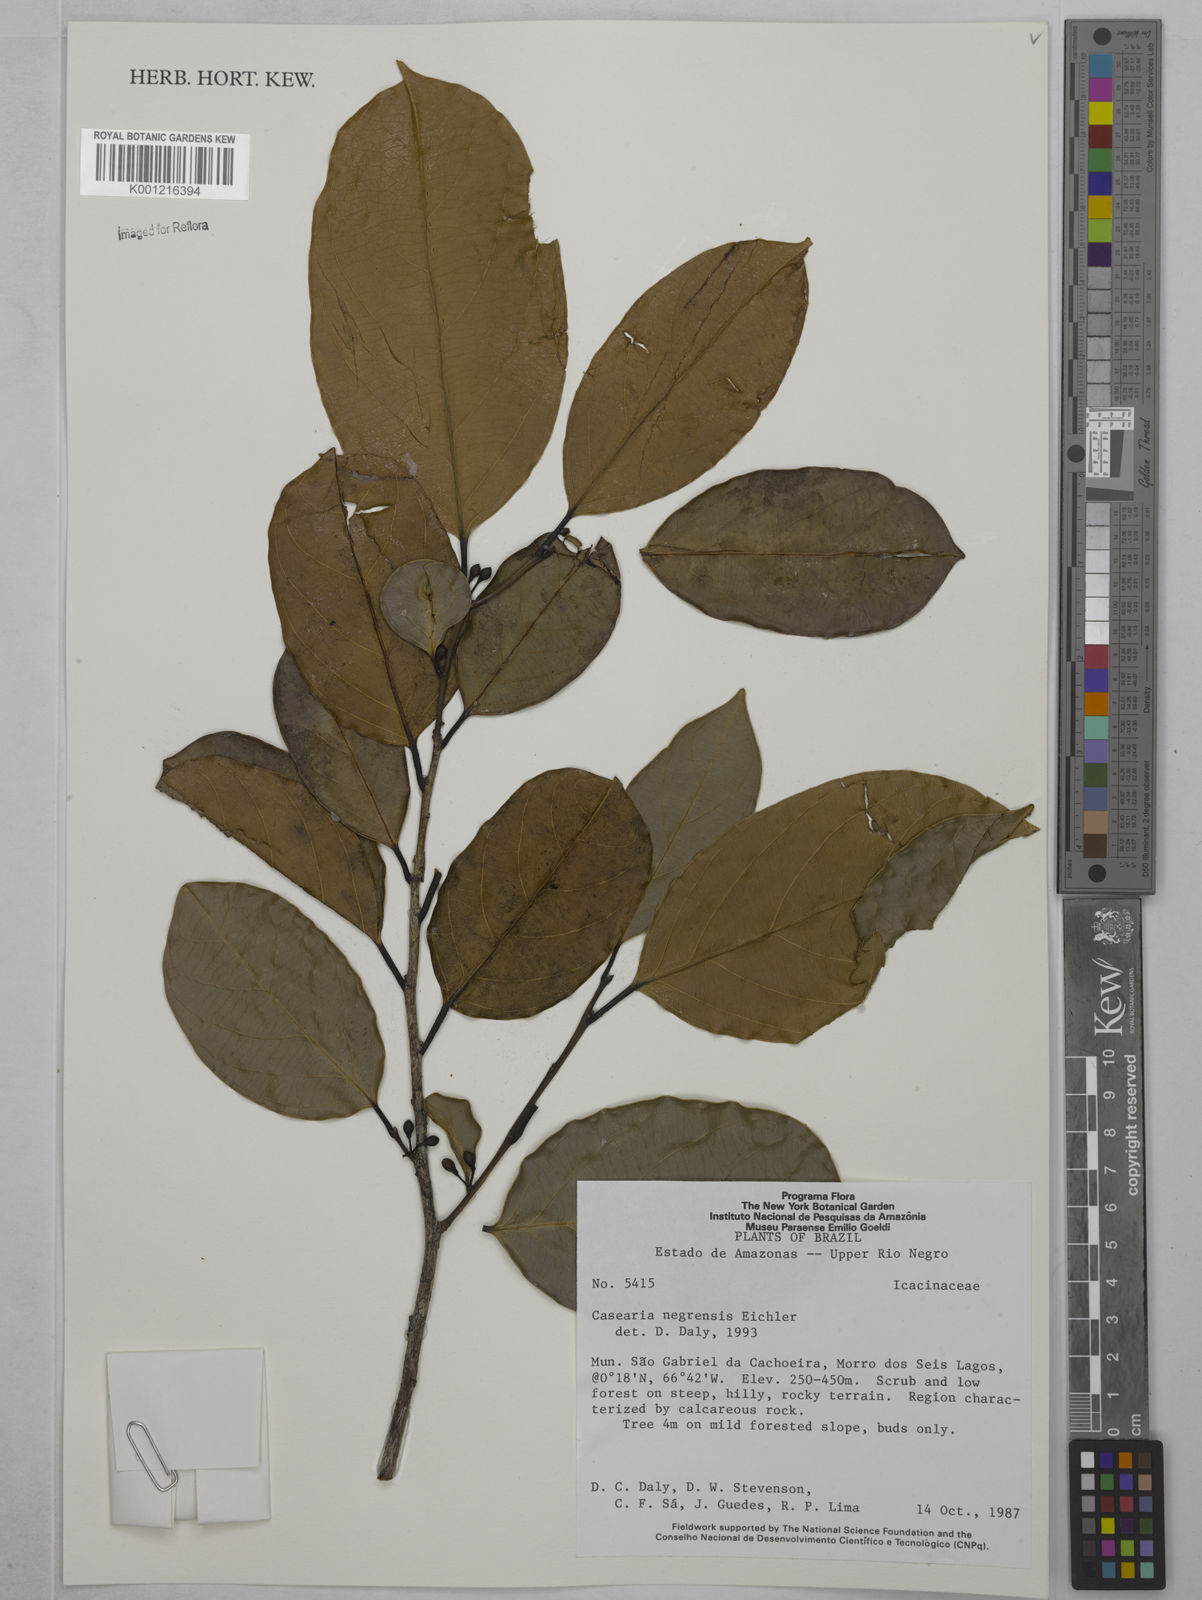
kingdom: Plantae
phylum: Tracheophyta
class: Magnoliopsida
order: Malpighiales
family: Salicaceae
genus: Casearia
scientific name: Casearia negrensis
